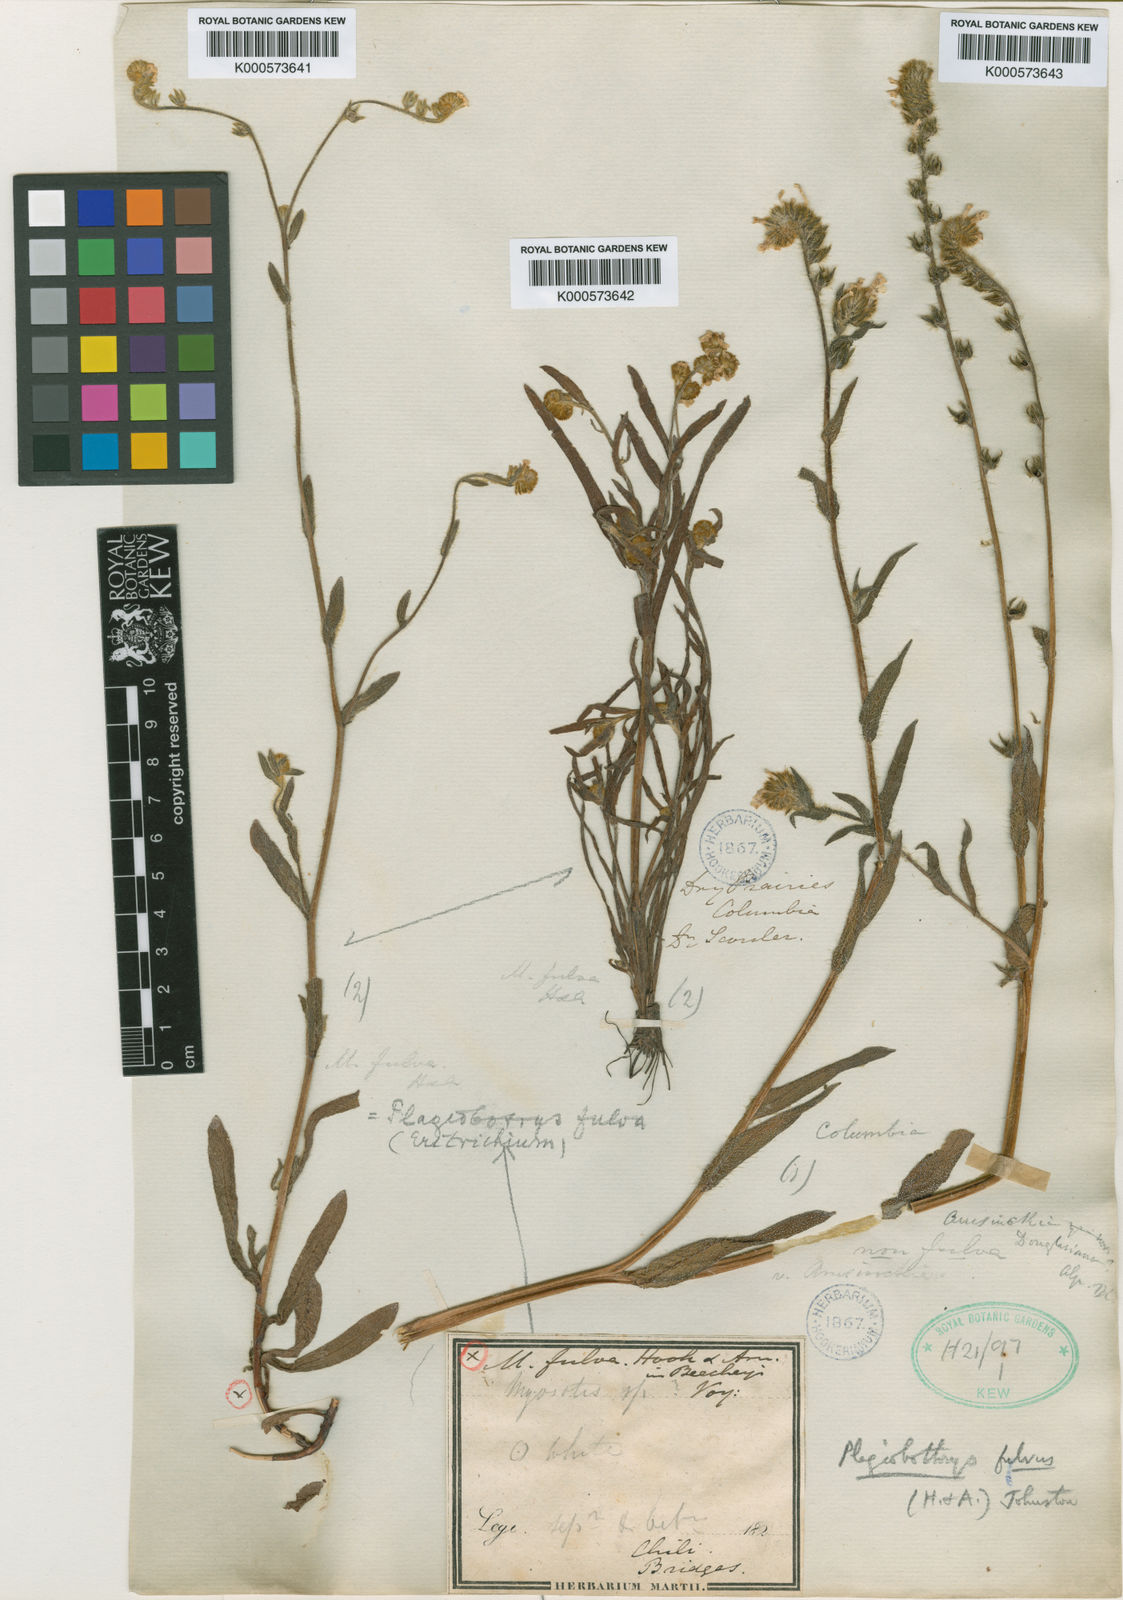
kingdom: Plantae
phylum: Tracheophyta
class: Magnoliopsida
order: Boraginales
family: Boraginaceae
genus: Plagiobothrys
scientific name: Plagiobothrys fulvus
